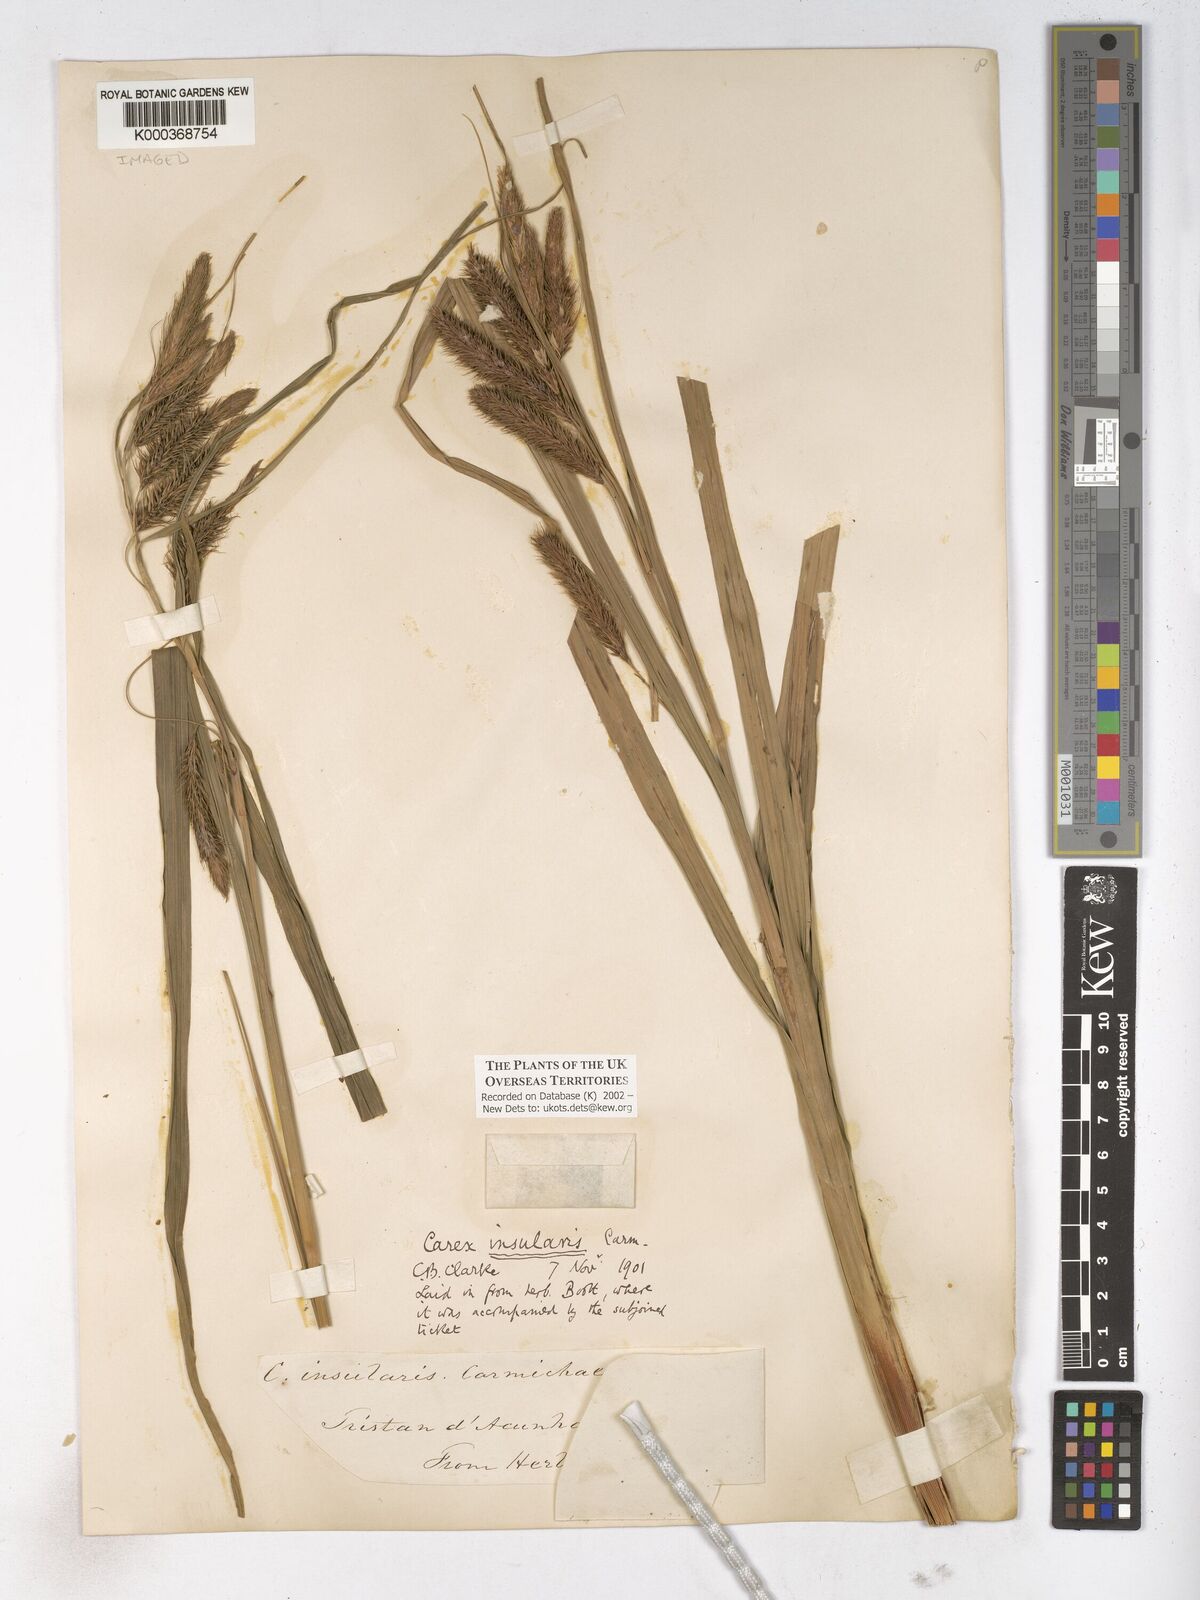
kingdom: Plantae
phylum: Tracheophyta
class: Liliopsida
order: Poales
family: Cyperaceae
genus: Carex
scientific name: Carex insularis
